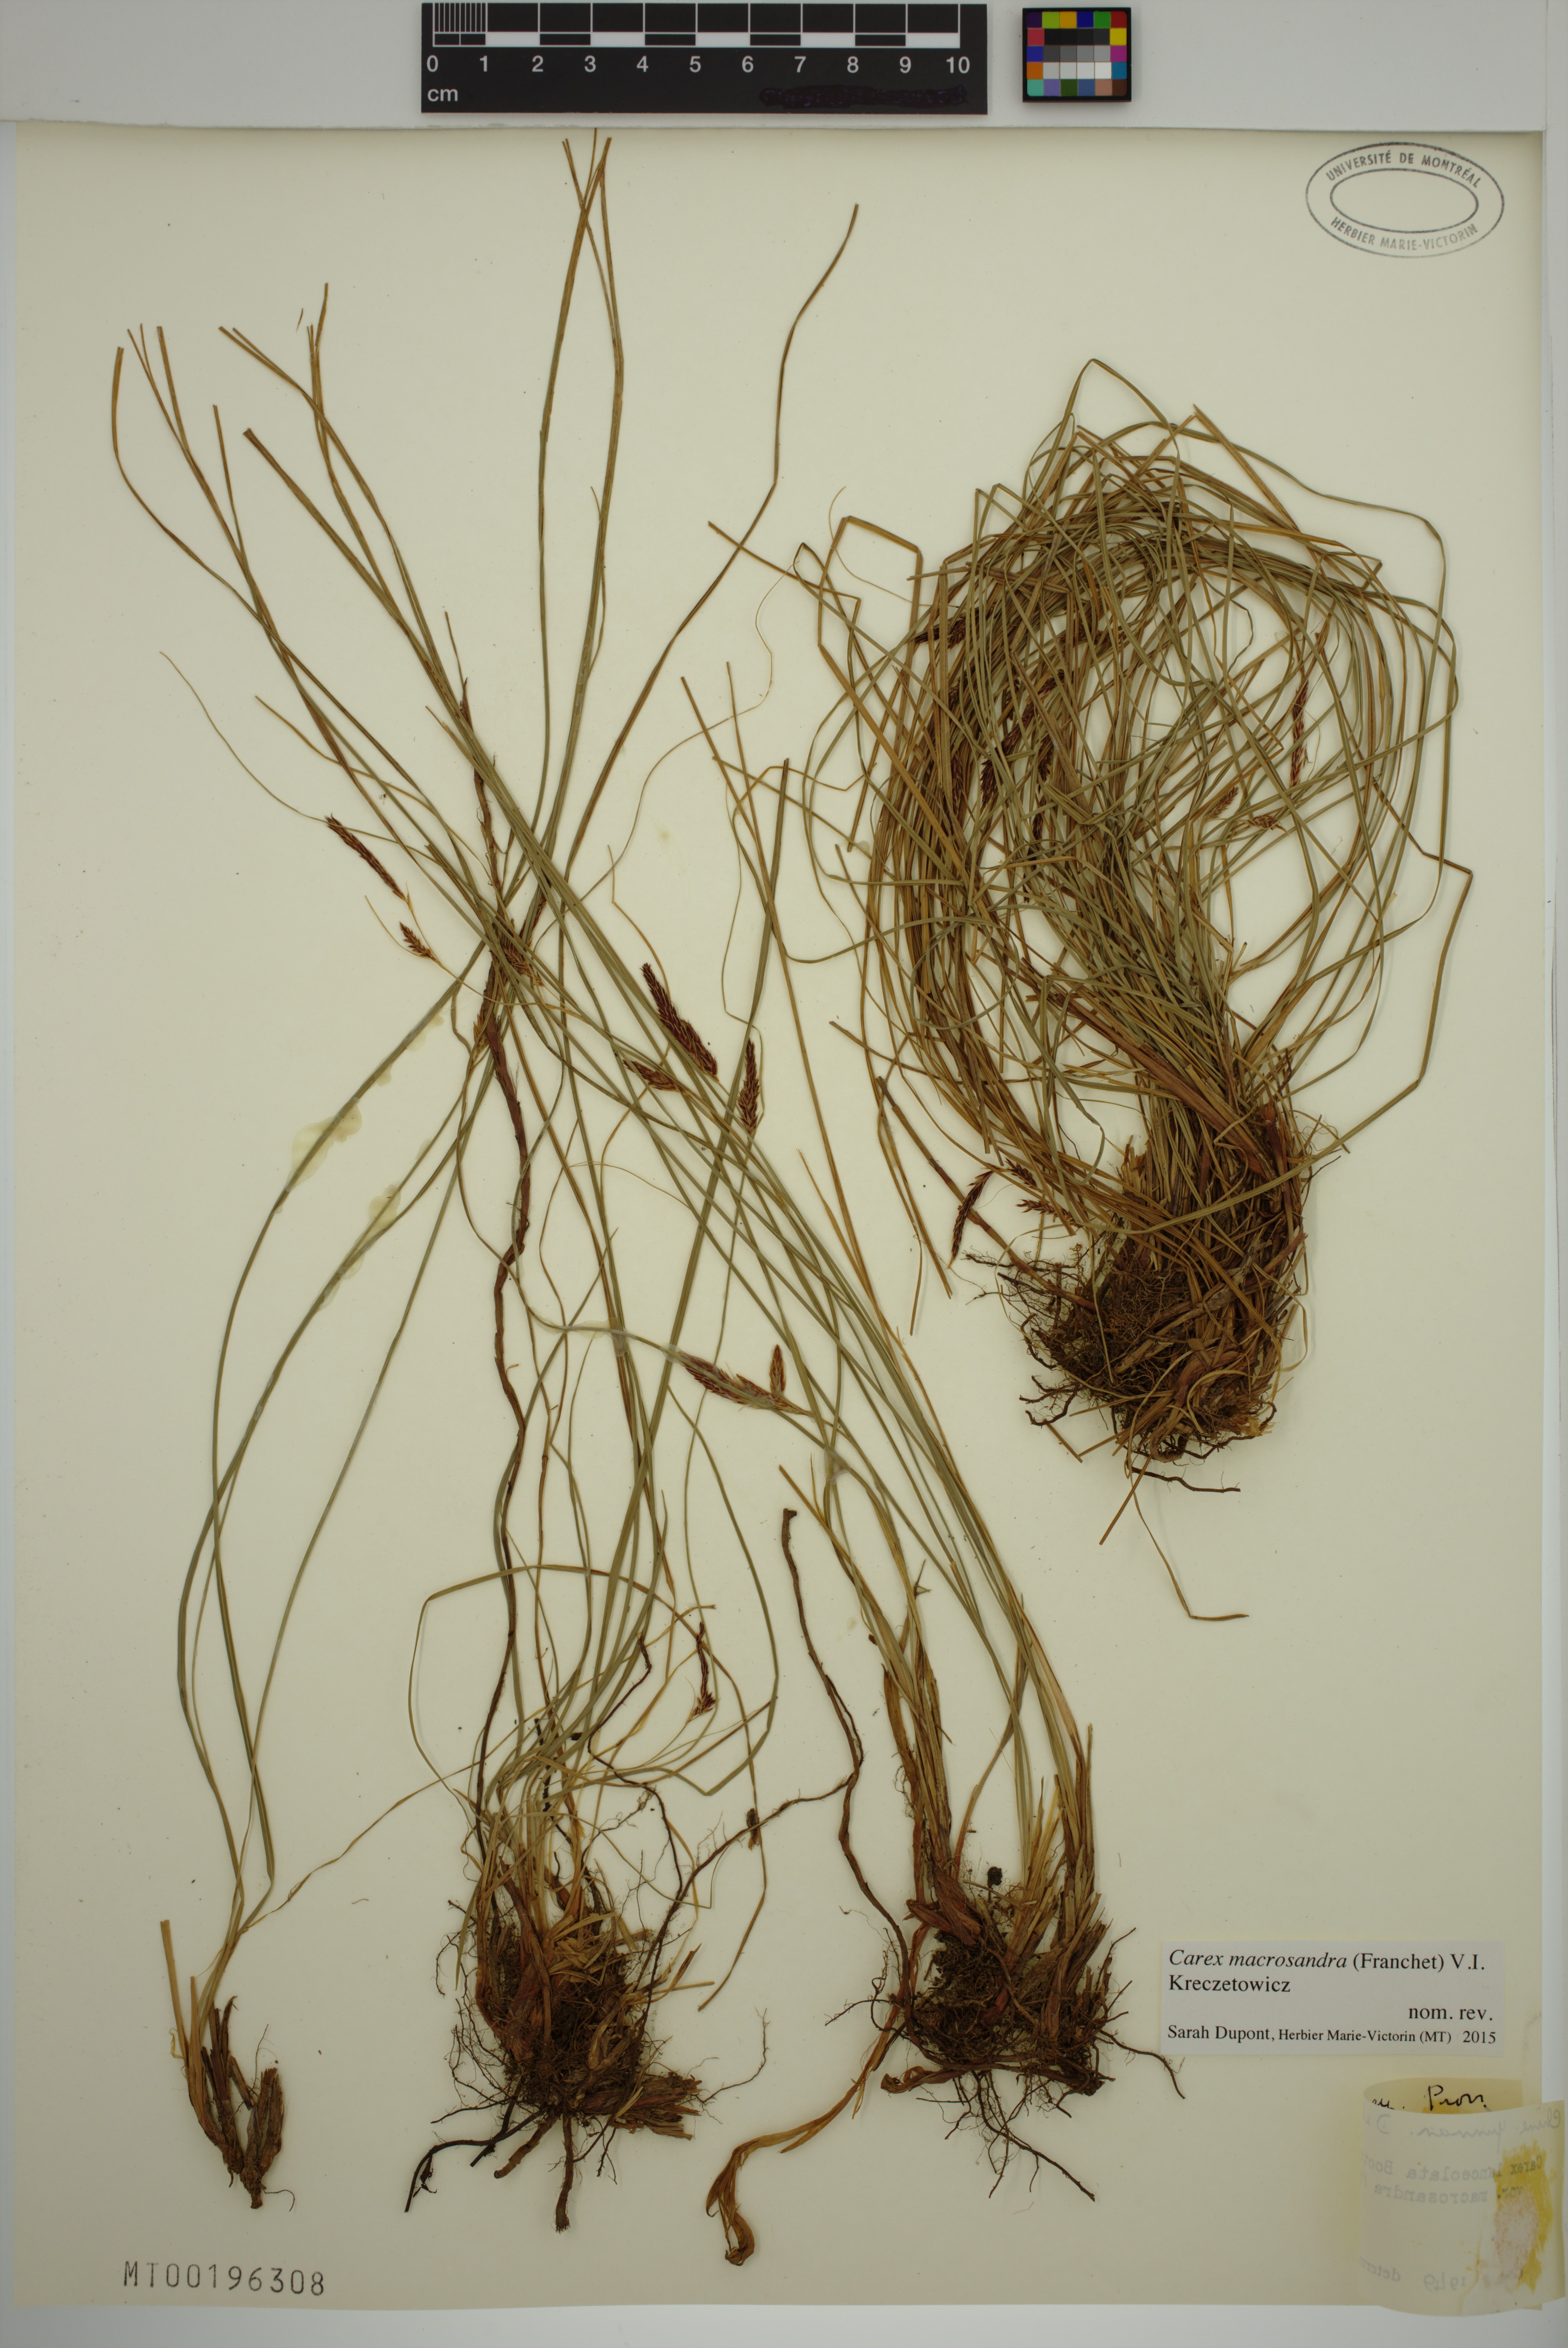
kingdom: Plantae
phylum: Tracheophyta
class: Liliopsida
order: Poales
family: Cyperaceae
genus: Carex
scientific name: Carex lanceolata
